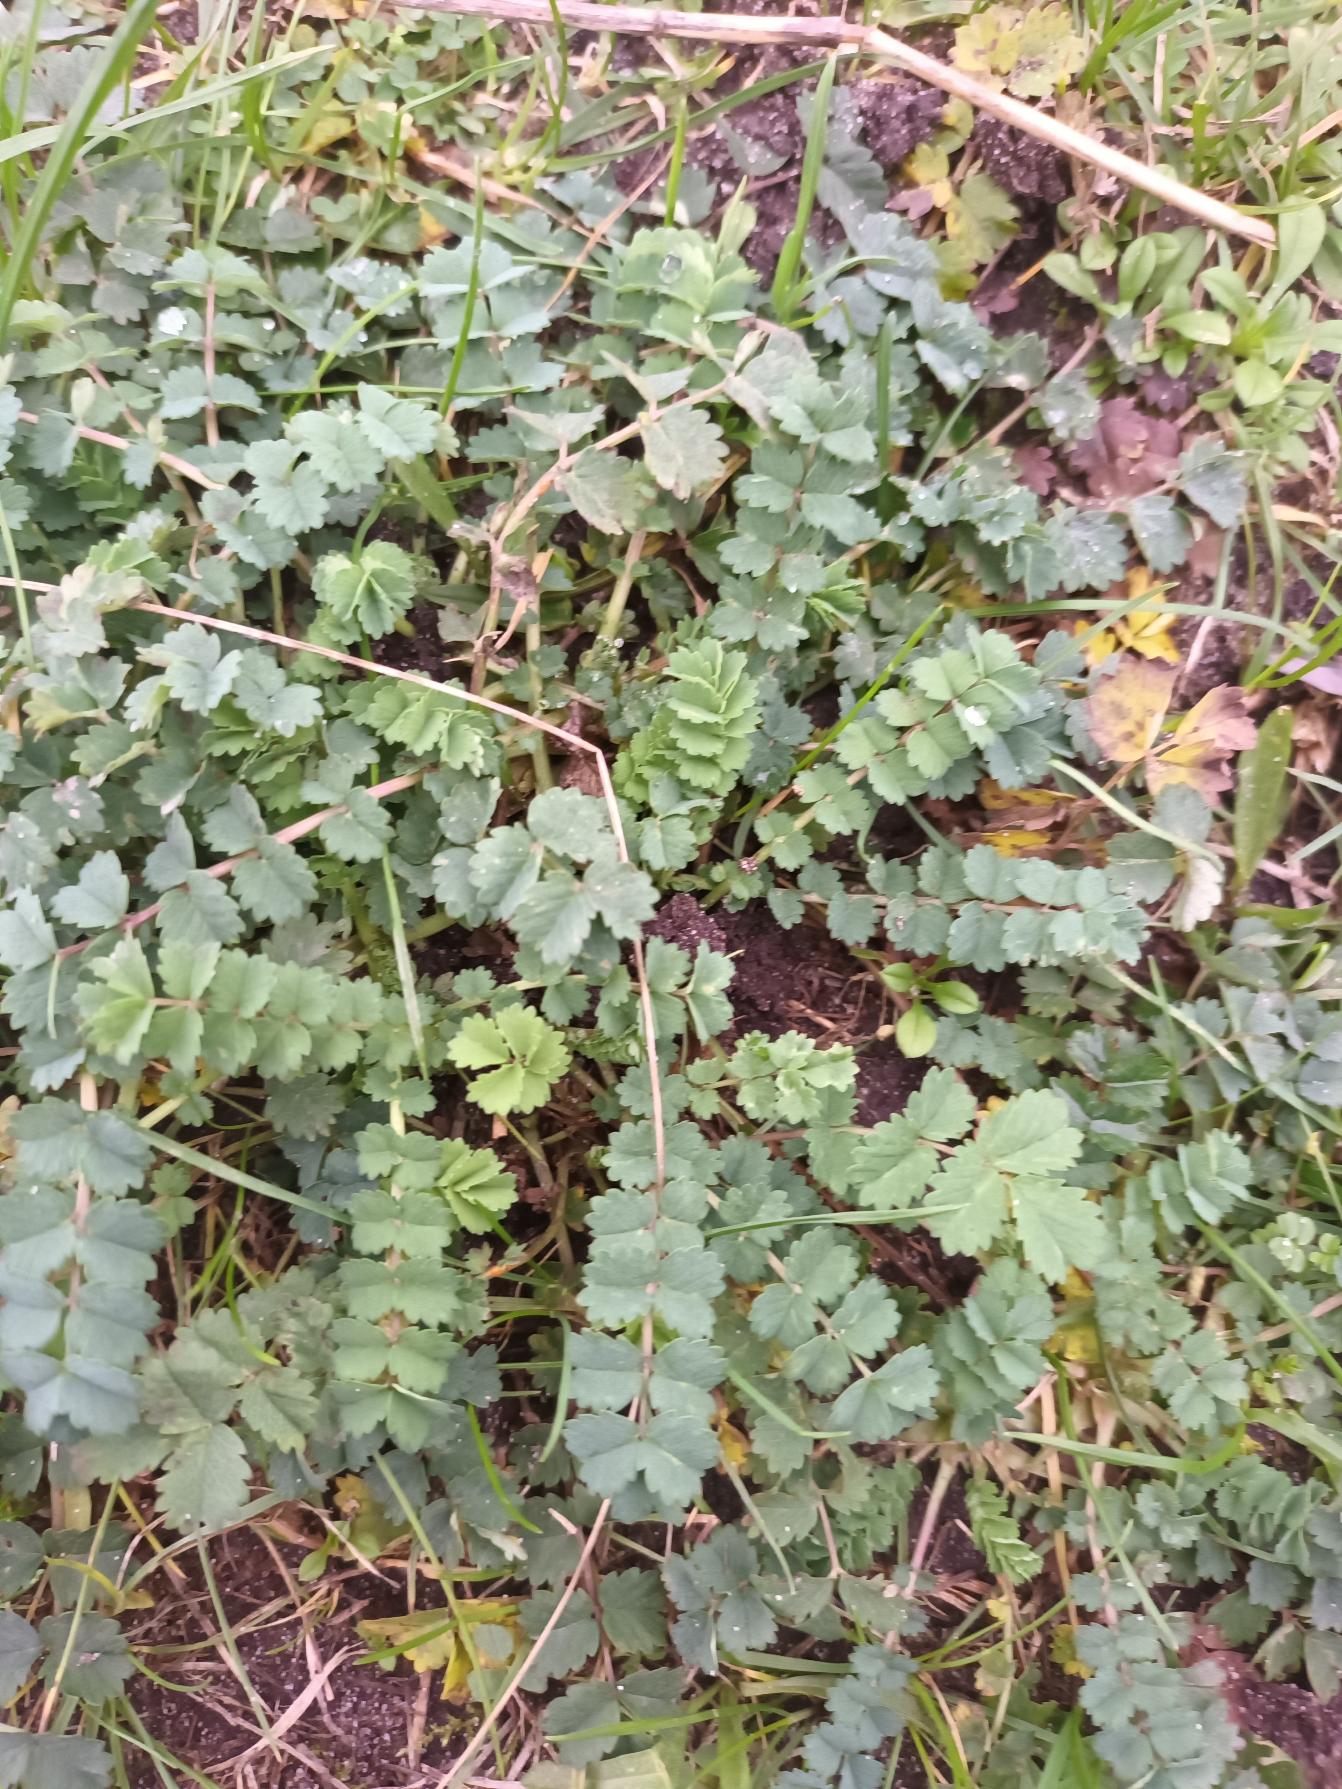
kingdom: Plantae
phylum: Tracheophyta
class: Magnoliopsida
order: Rosales
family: Rosaceae
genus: Poterium
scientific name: Poterium sanguisorba
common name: Bibernelle
